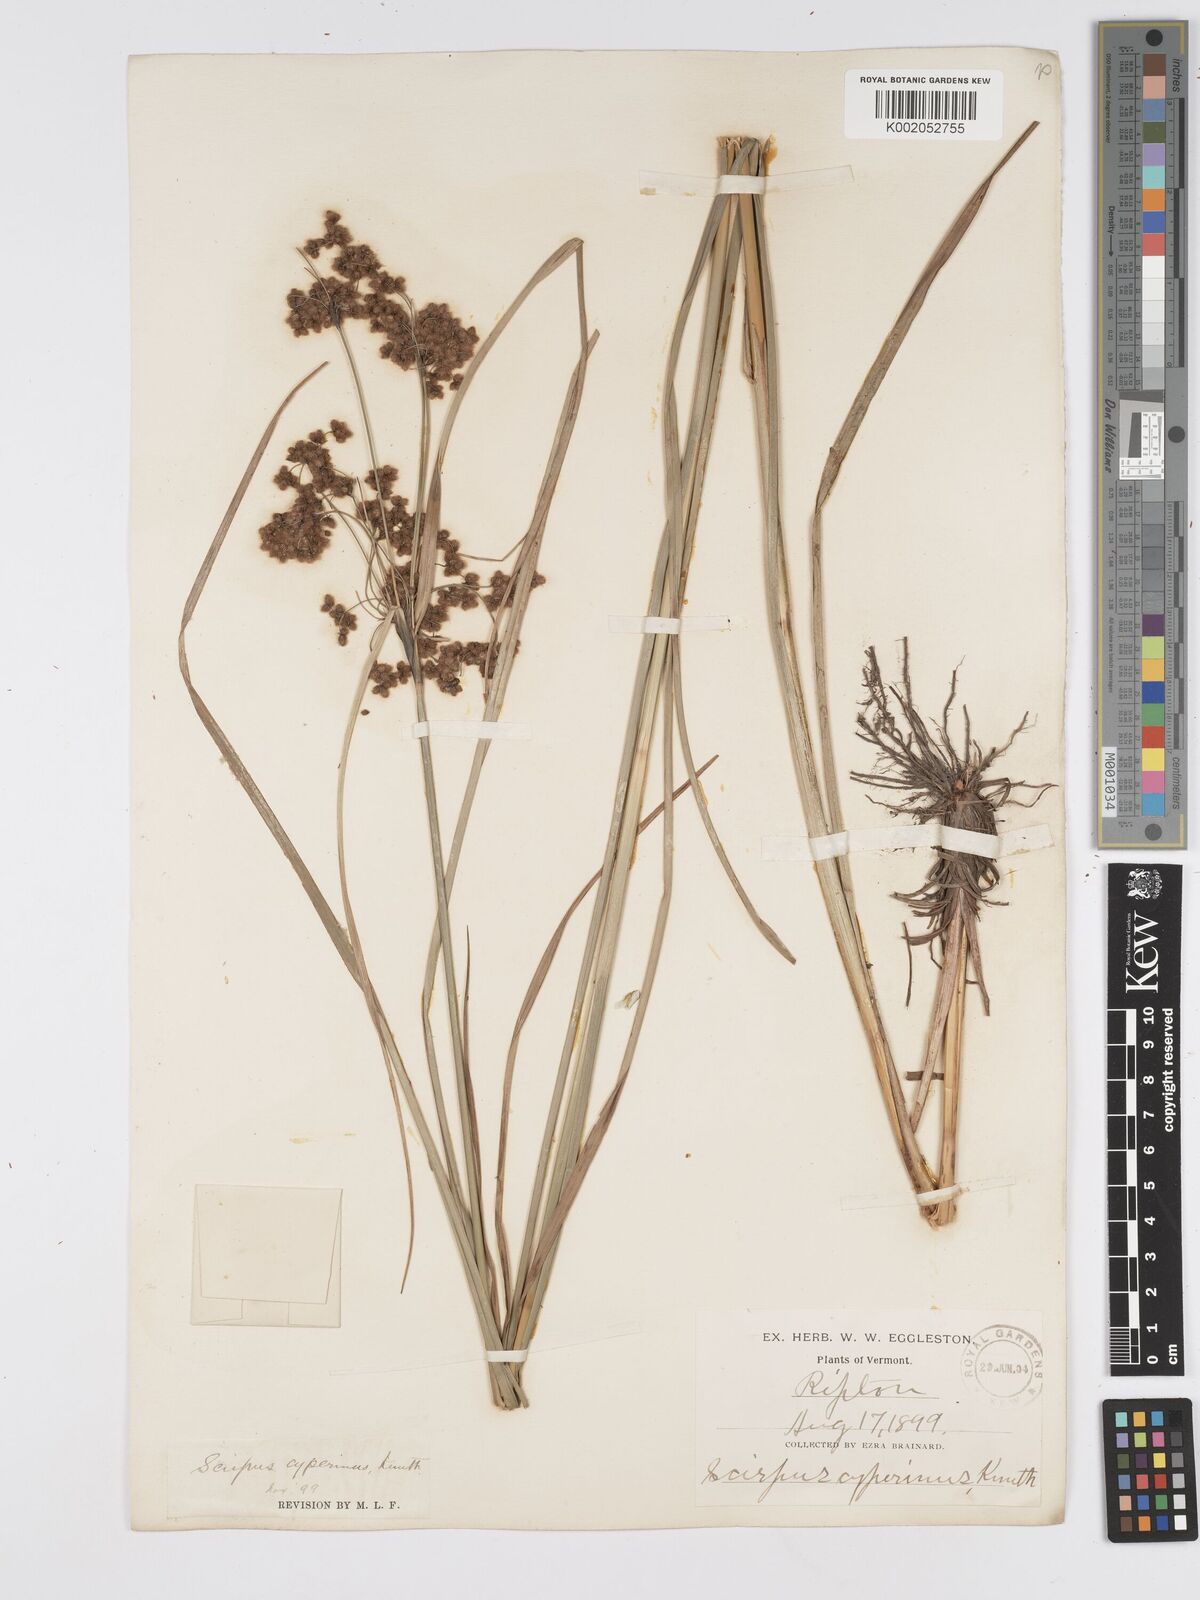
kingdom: Plantae
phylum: Tracheophyta
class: Liliopsida
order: Poales
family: Cyperaceae
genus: Scirpus
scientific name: Scirpus cyperinus
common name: Black-sheathed bulrush
